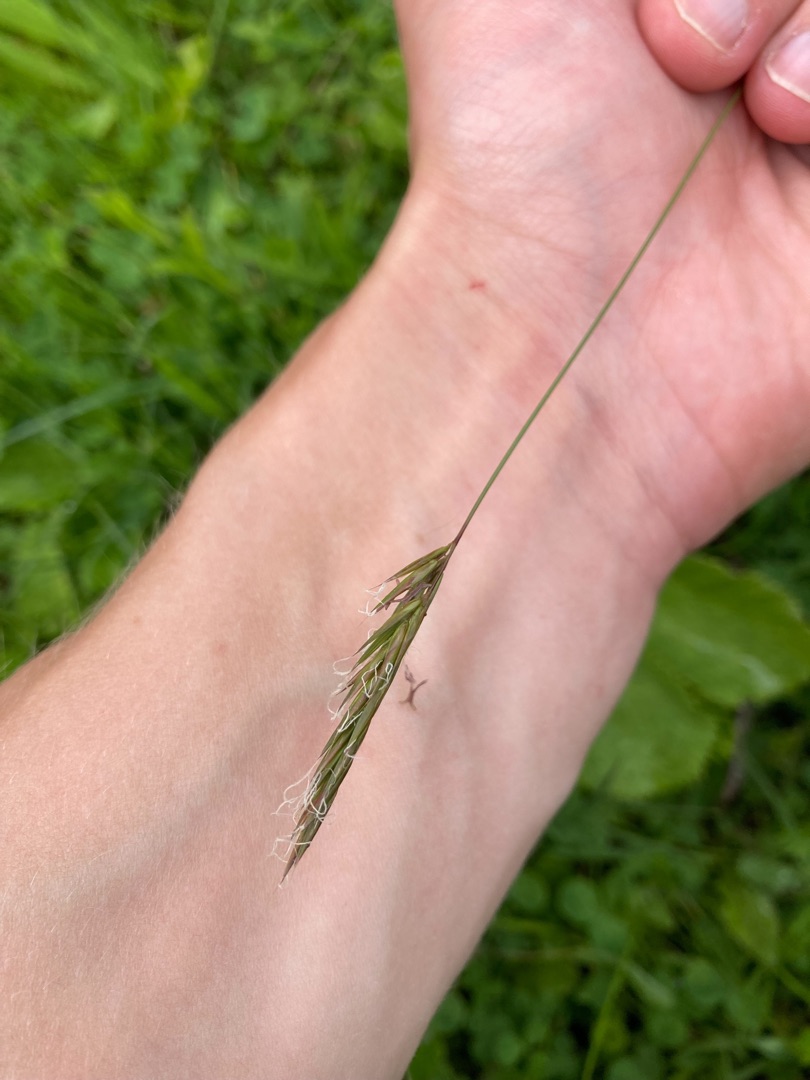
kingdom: Plantae
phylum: Tracheophyta
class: Liliopsida
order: Poales
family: Poaceae
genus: Anthoxanthum
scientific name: Anthoxanthum odoratum
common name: Vellugtende gulaks
